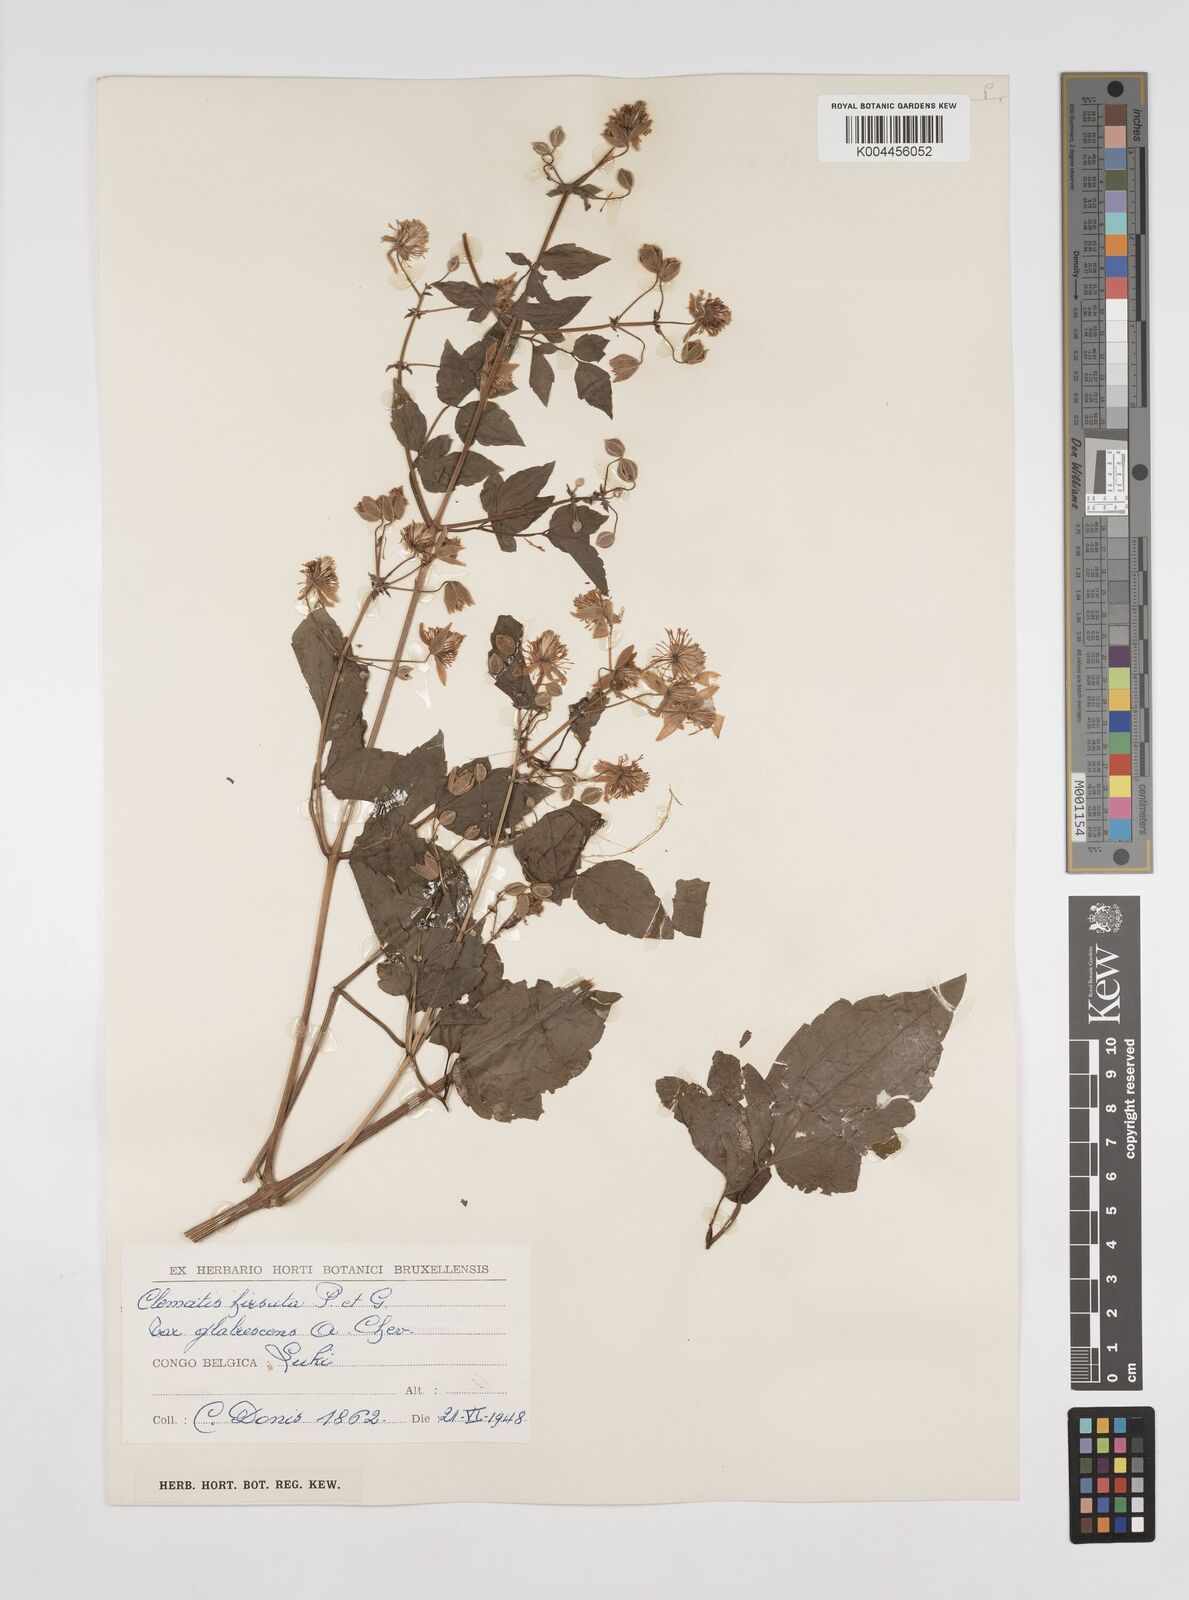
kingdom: Plantae
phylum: Tracheophyta
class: Magnoliopsida
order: Ranunculales
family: Ranunculaceae
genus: Clematis
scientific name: Clematis hirsuta
